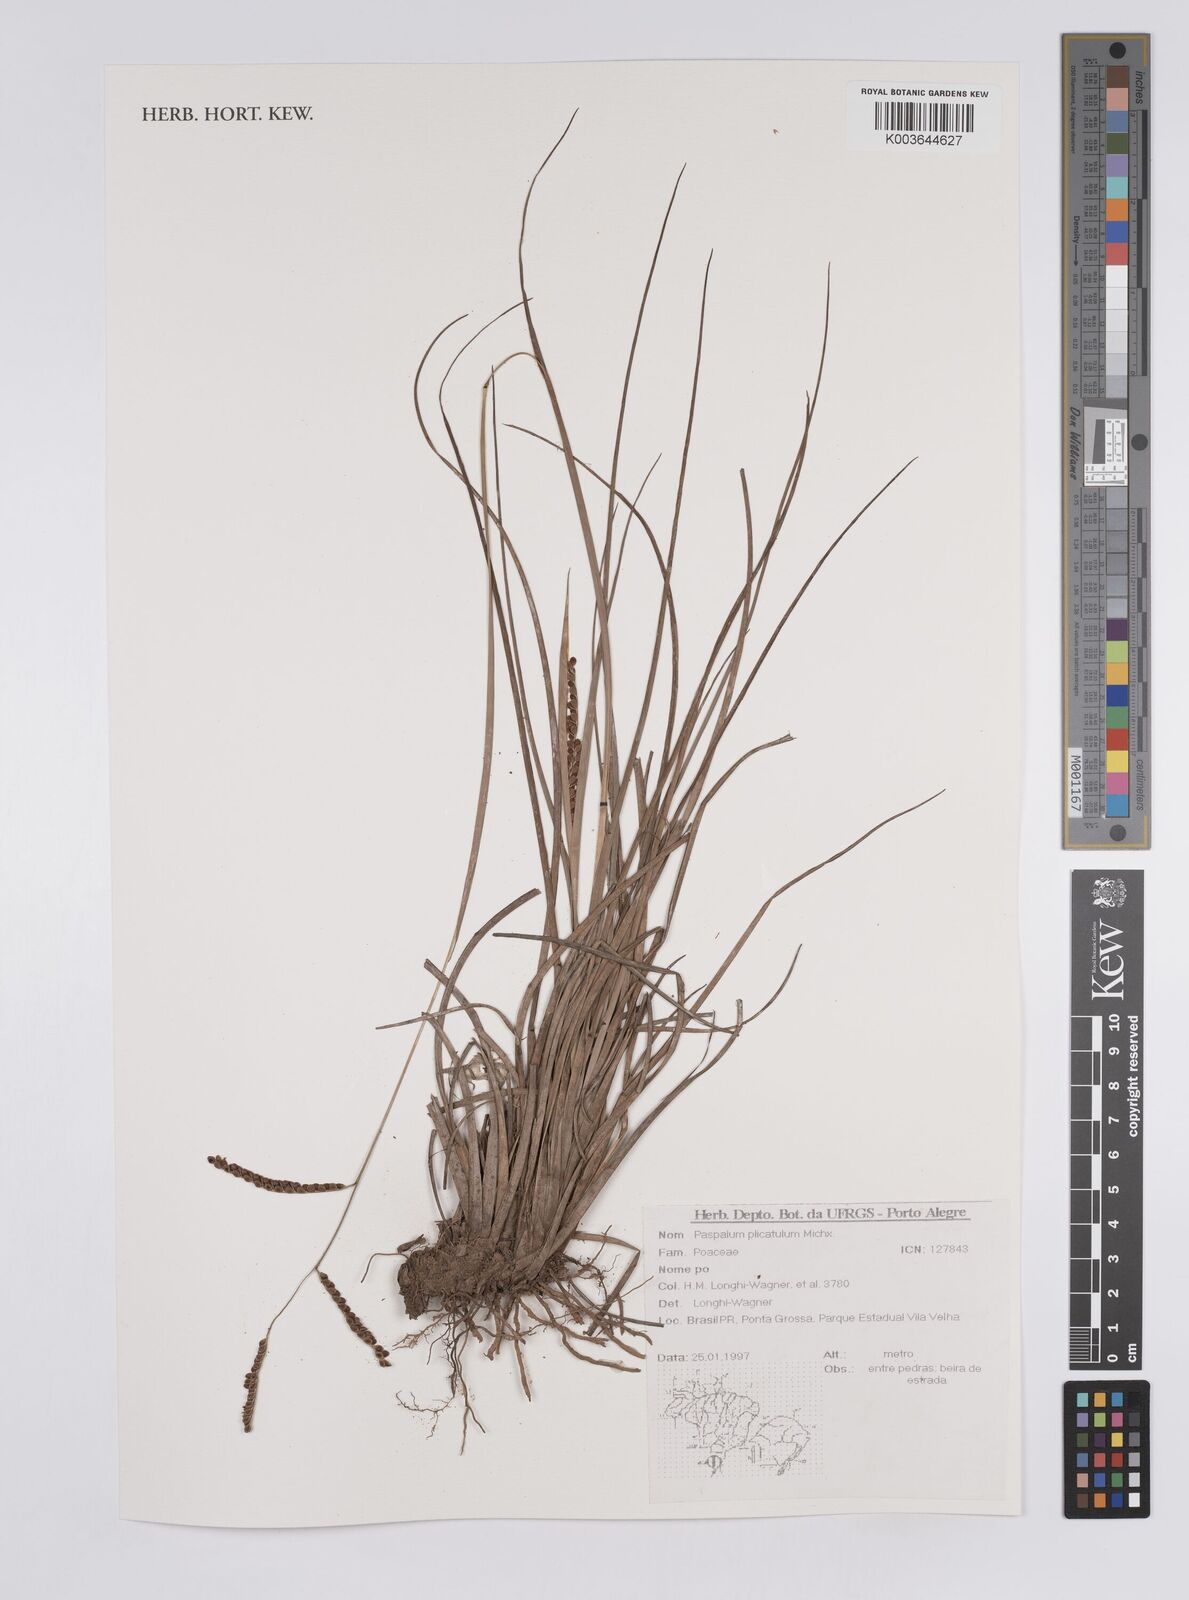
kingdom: Plantae
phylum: Tracheophyta
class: Liliopsida
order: Poales
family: Poaceae
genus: Paspalum
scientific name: Paspalum plicatulum
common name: Top paspalum
